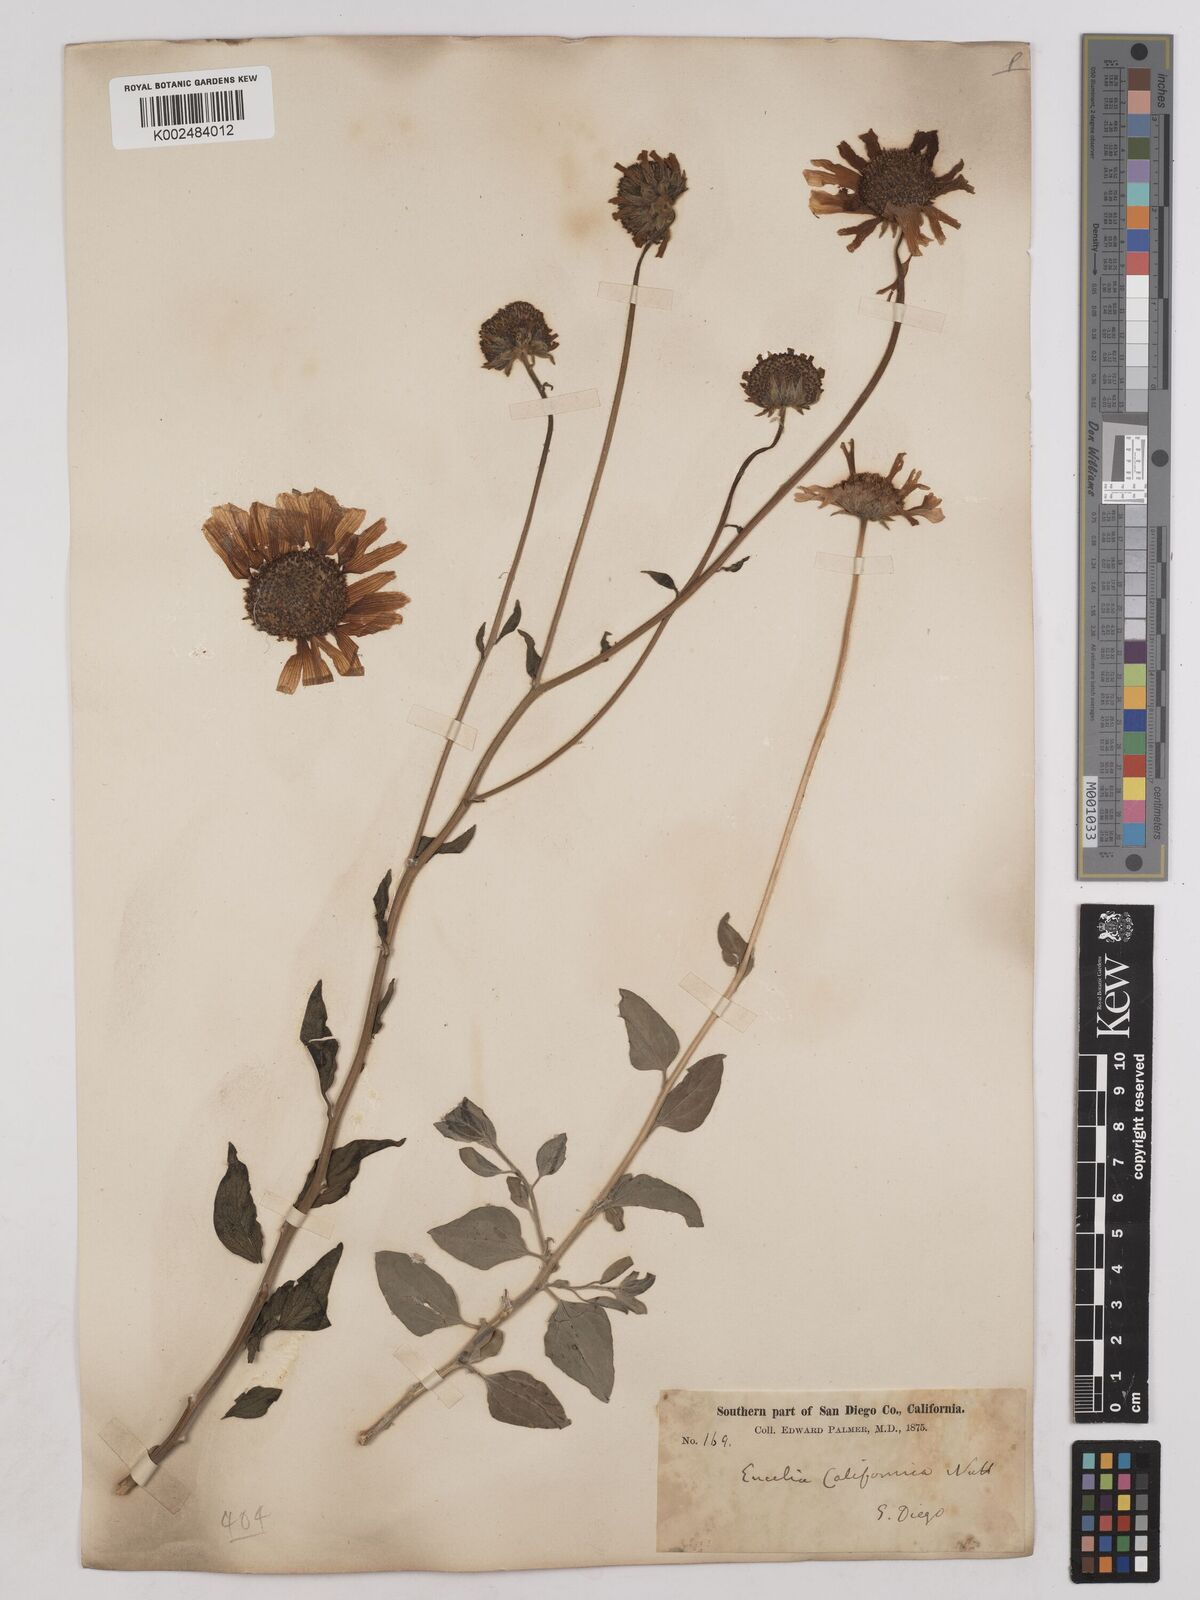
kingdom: Plantae
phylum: Tracheophyta
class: Magnoliopsida
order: Asterales
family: Asteraceae
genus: Encelia
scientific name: Encelia californica
